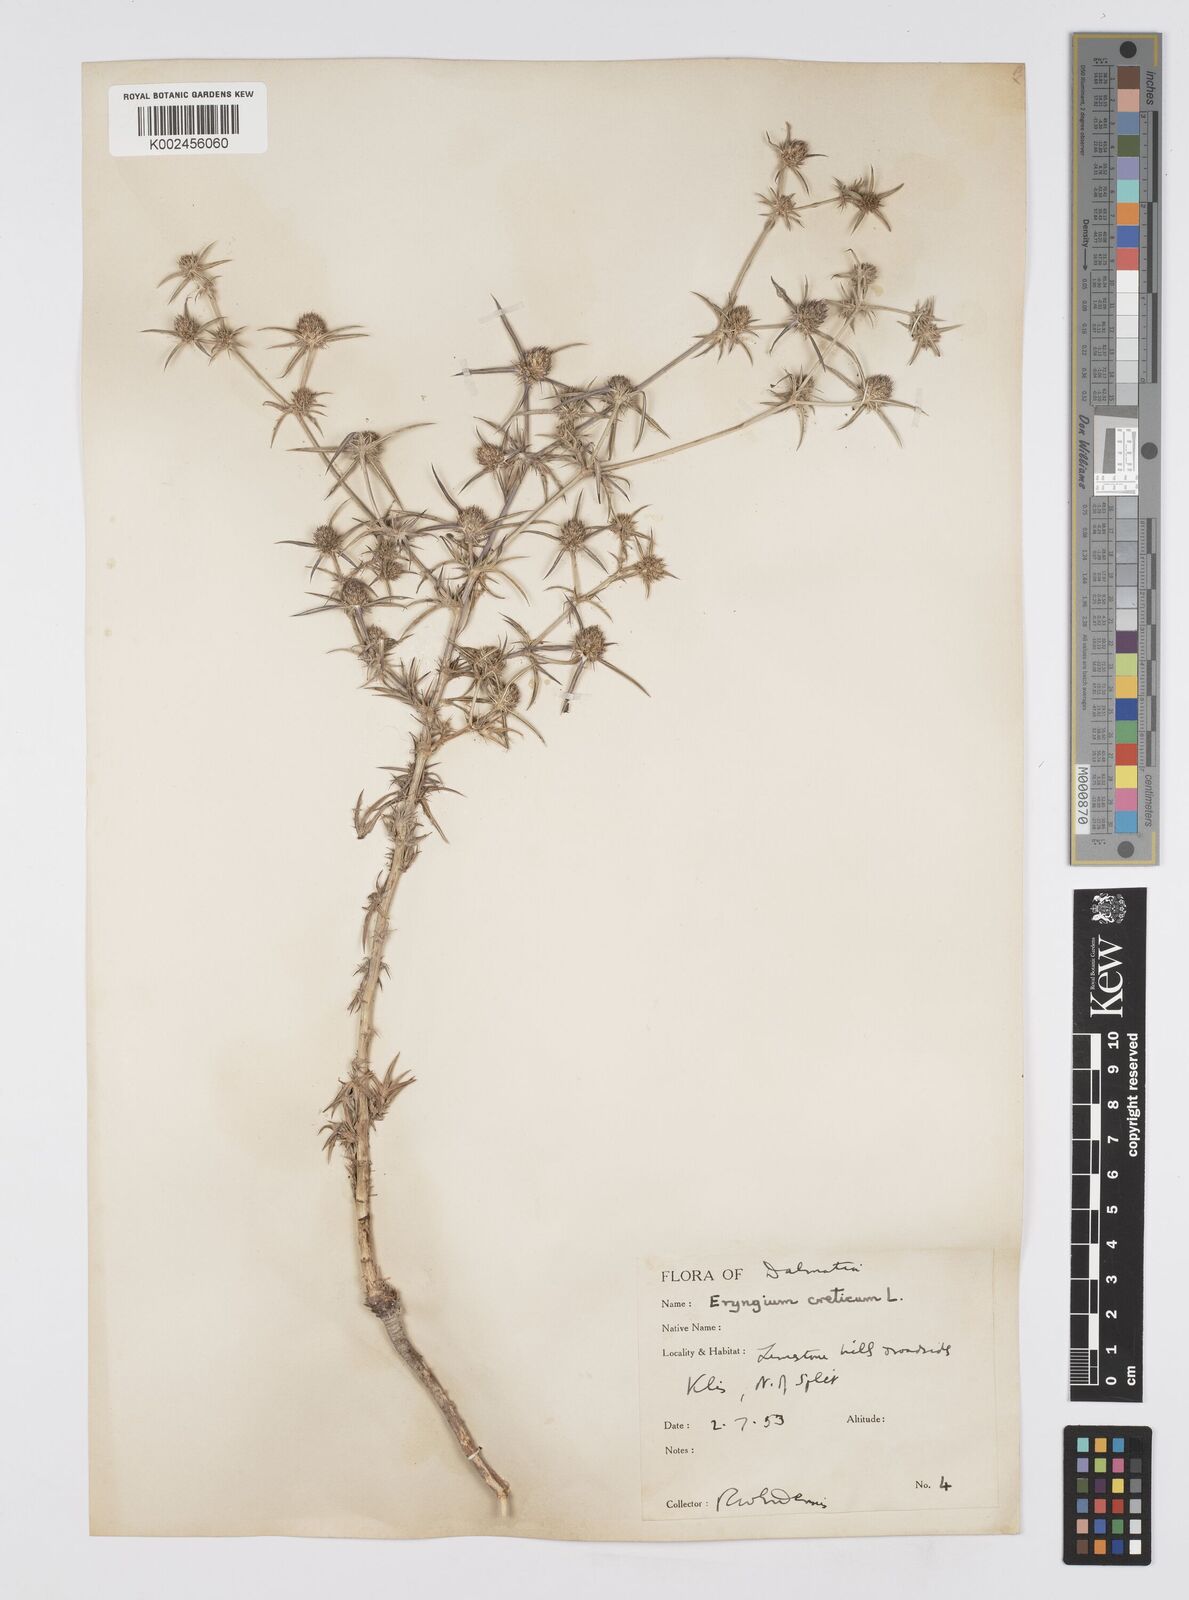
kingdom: Plantae
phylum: Tracheophyta
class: Magnoliopsida
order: Apiales
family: Apiaceae
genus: Eryngium
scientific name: Eryngium creticum
